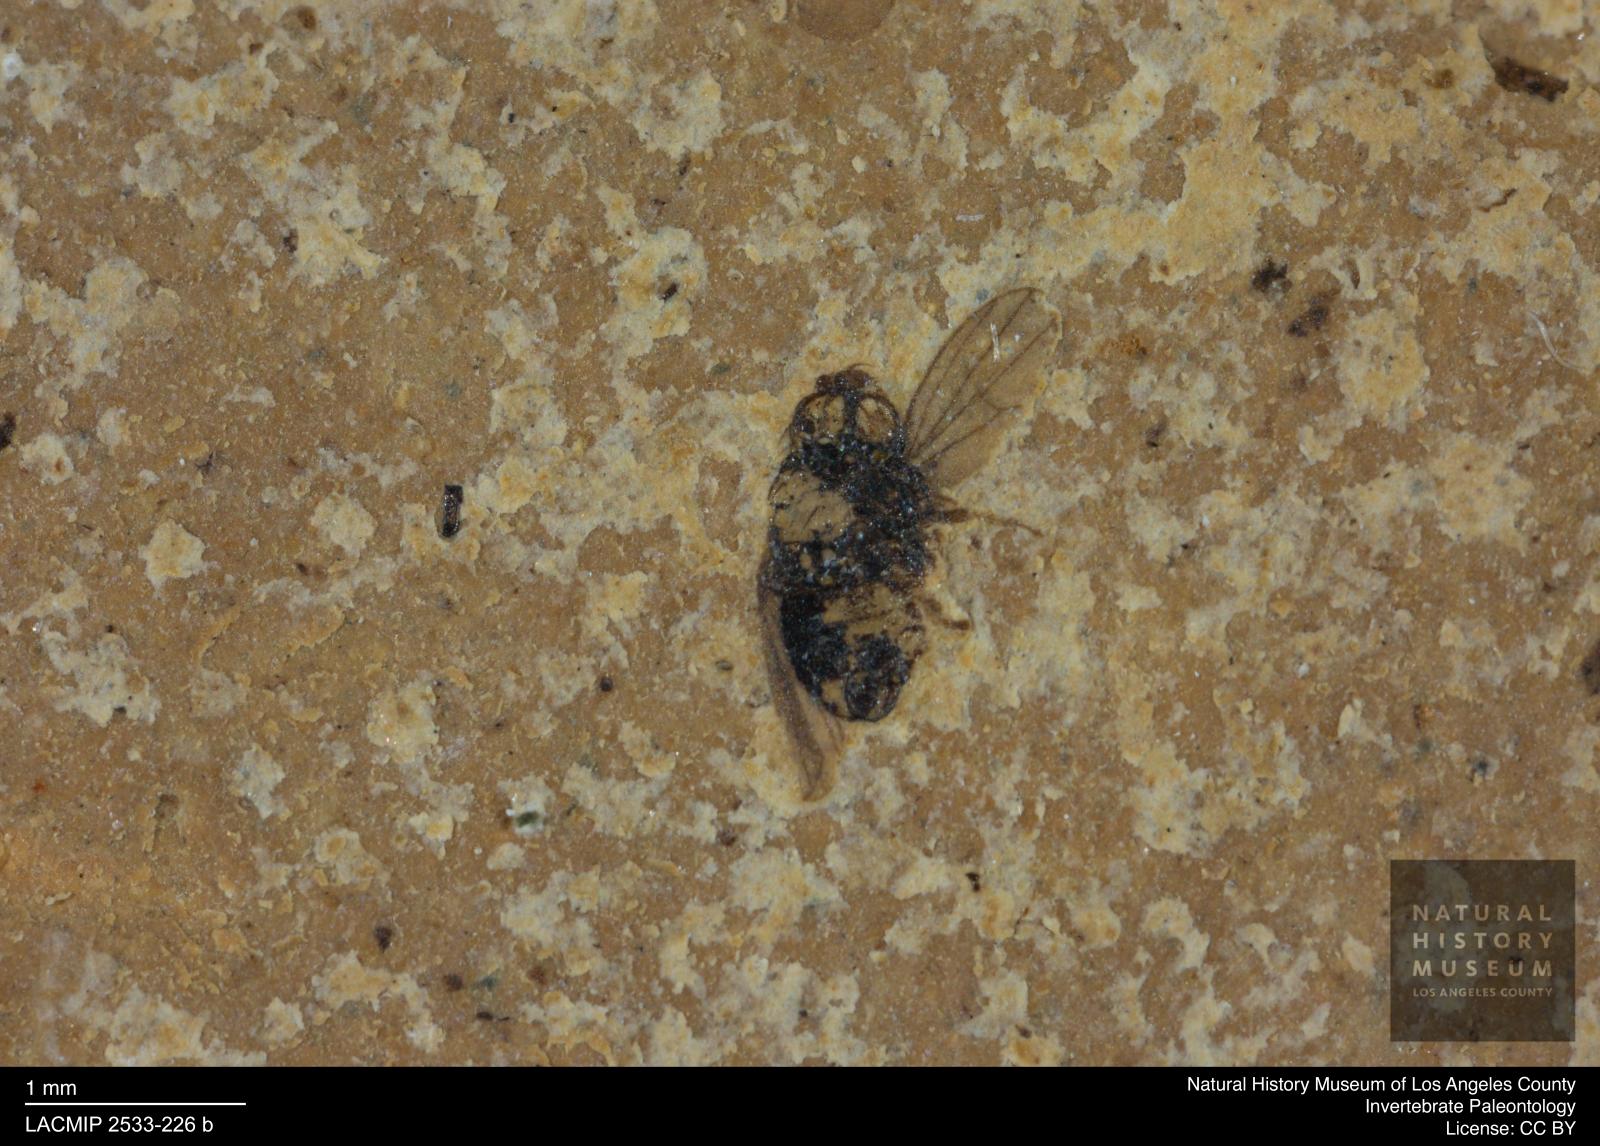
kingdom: Animalia
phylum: Arthropoda
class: Insecta
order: Diptera
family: Anthomyzidae
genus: Anthomyza
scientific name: Anthomyza
